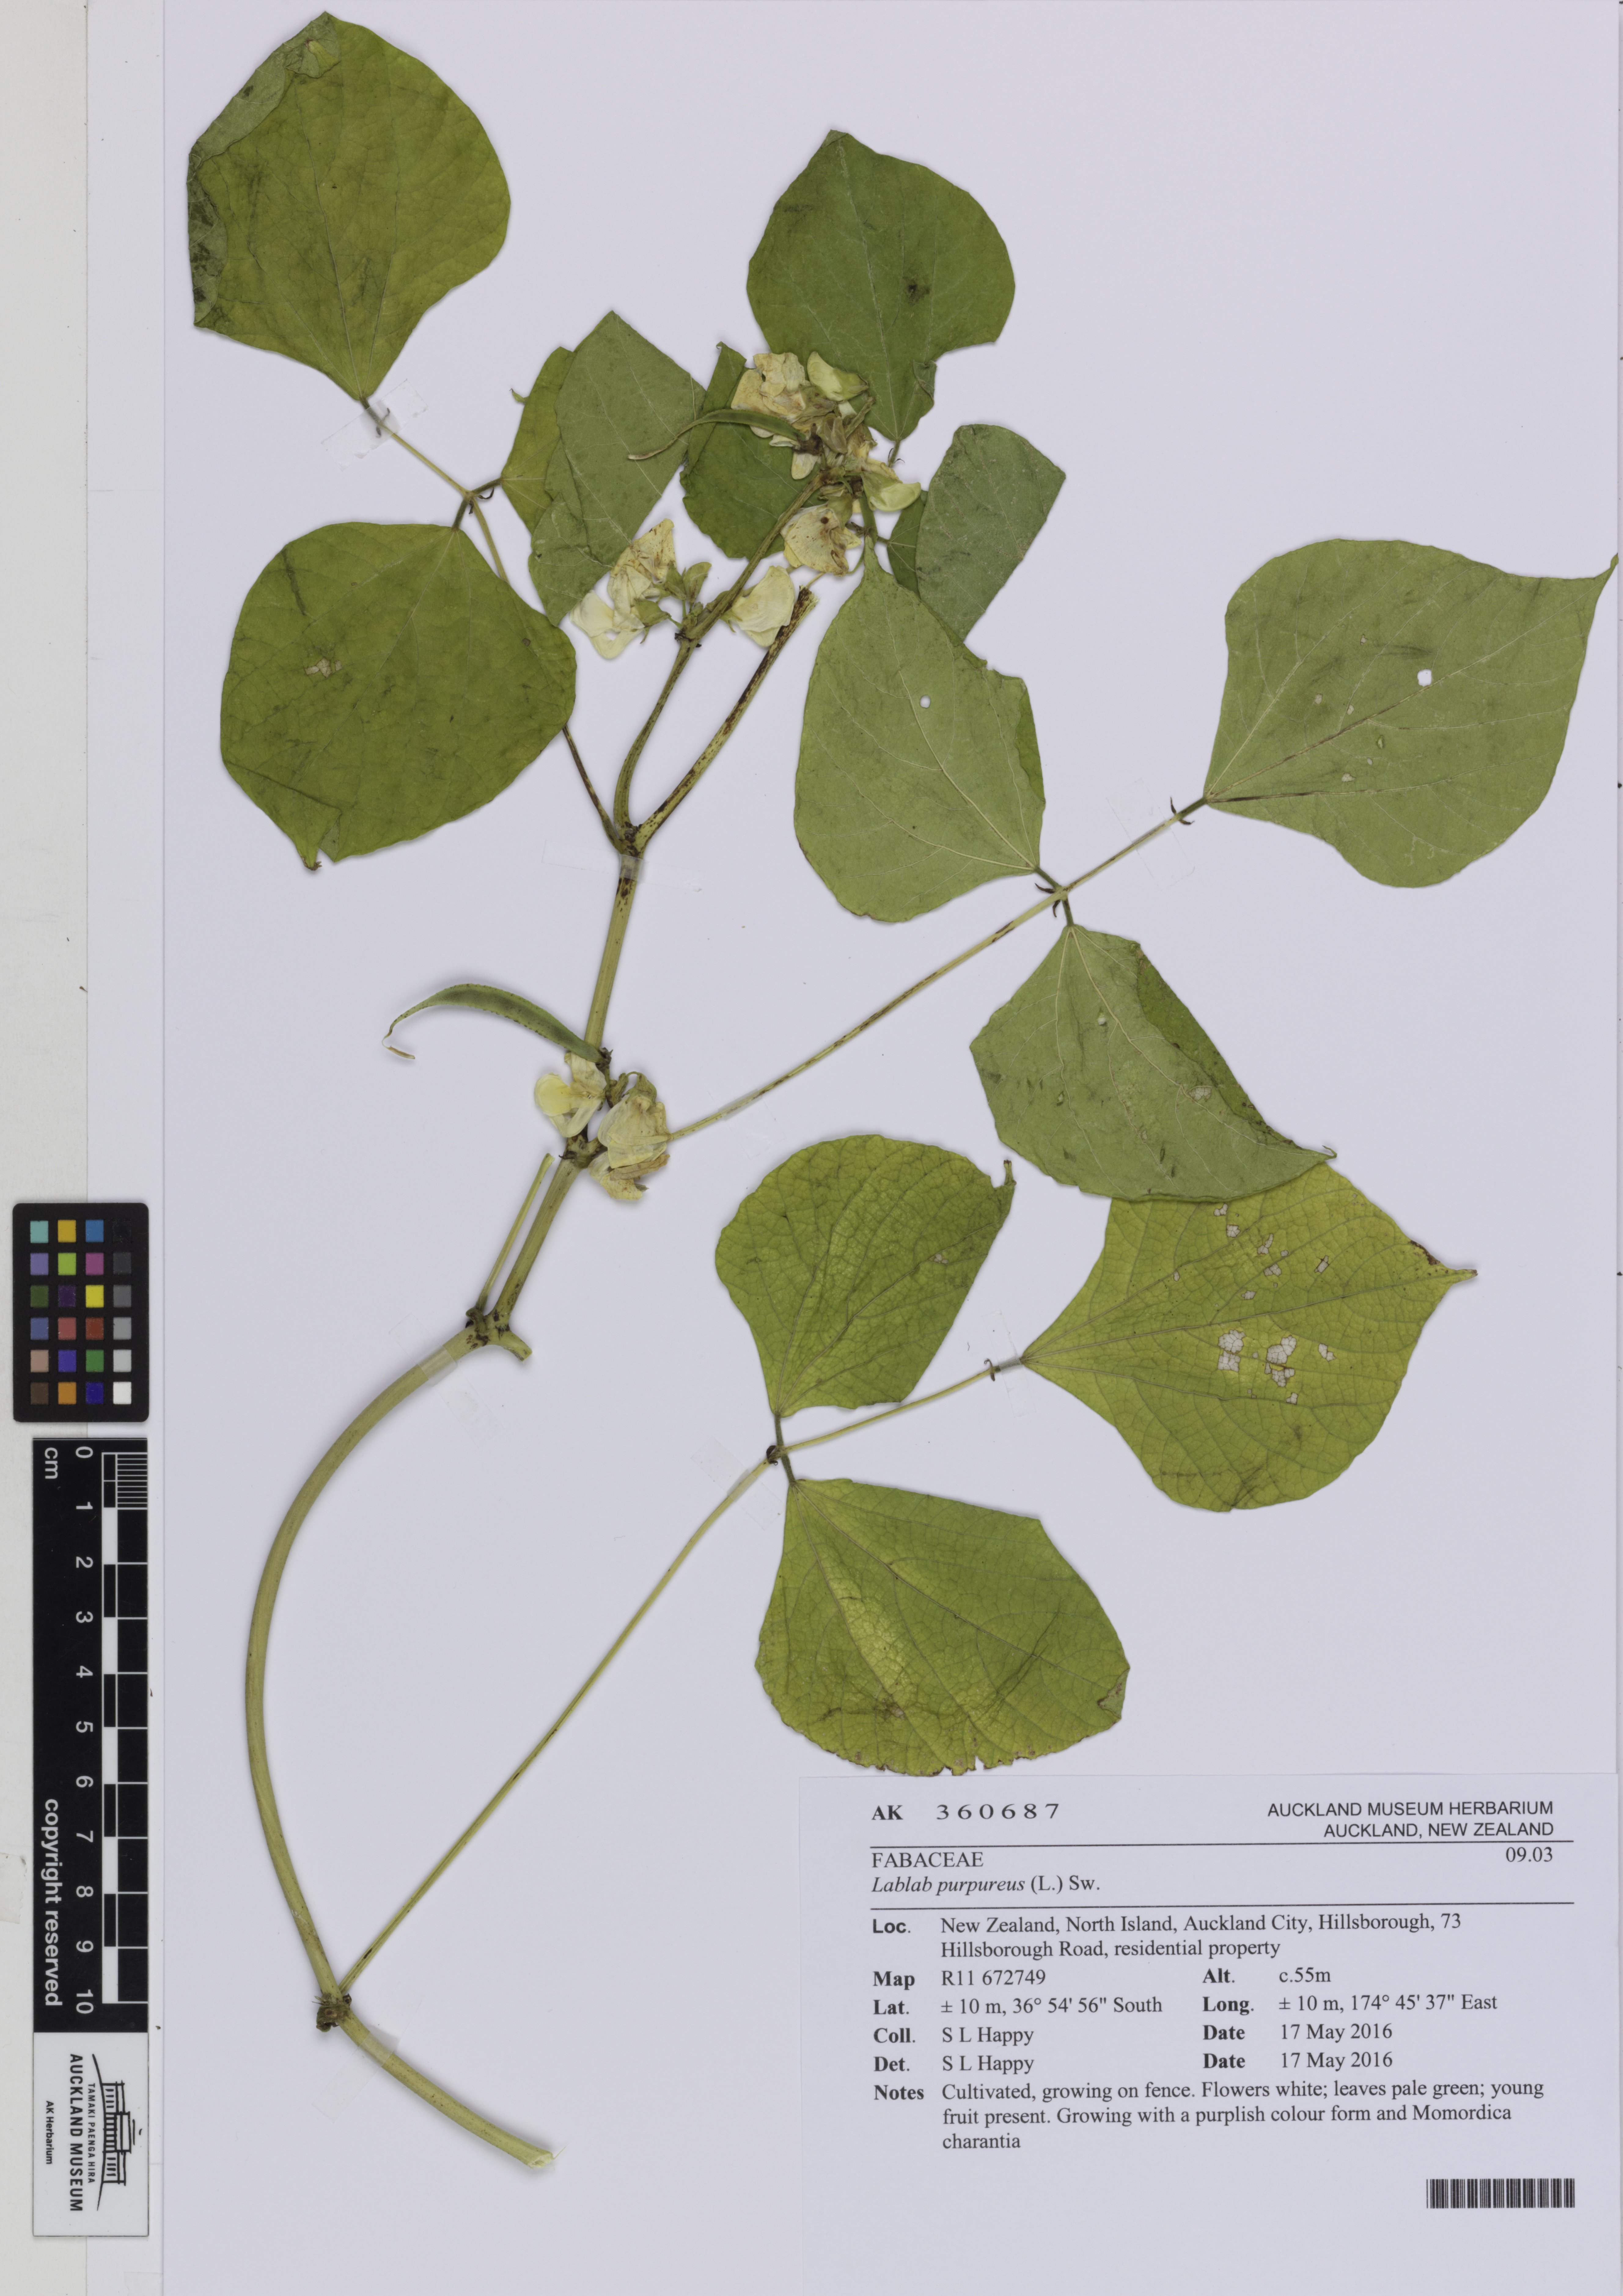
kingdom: Plantae
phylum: Tracheophyta
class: Magnoliopsida
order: Fabales
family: Fabaceae
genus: Lablab
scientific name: Lablab purpureus
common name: Lablab-bean
